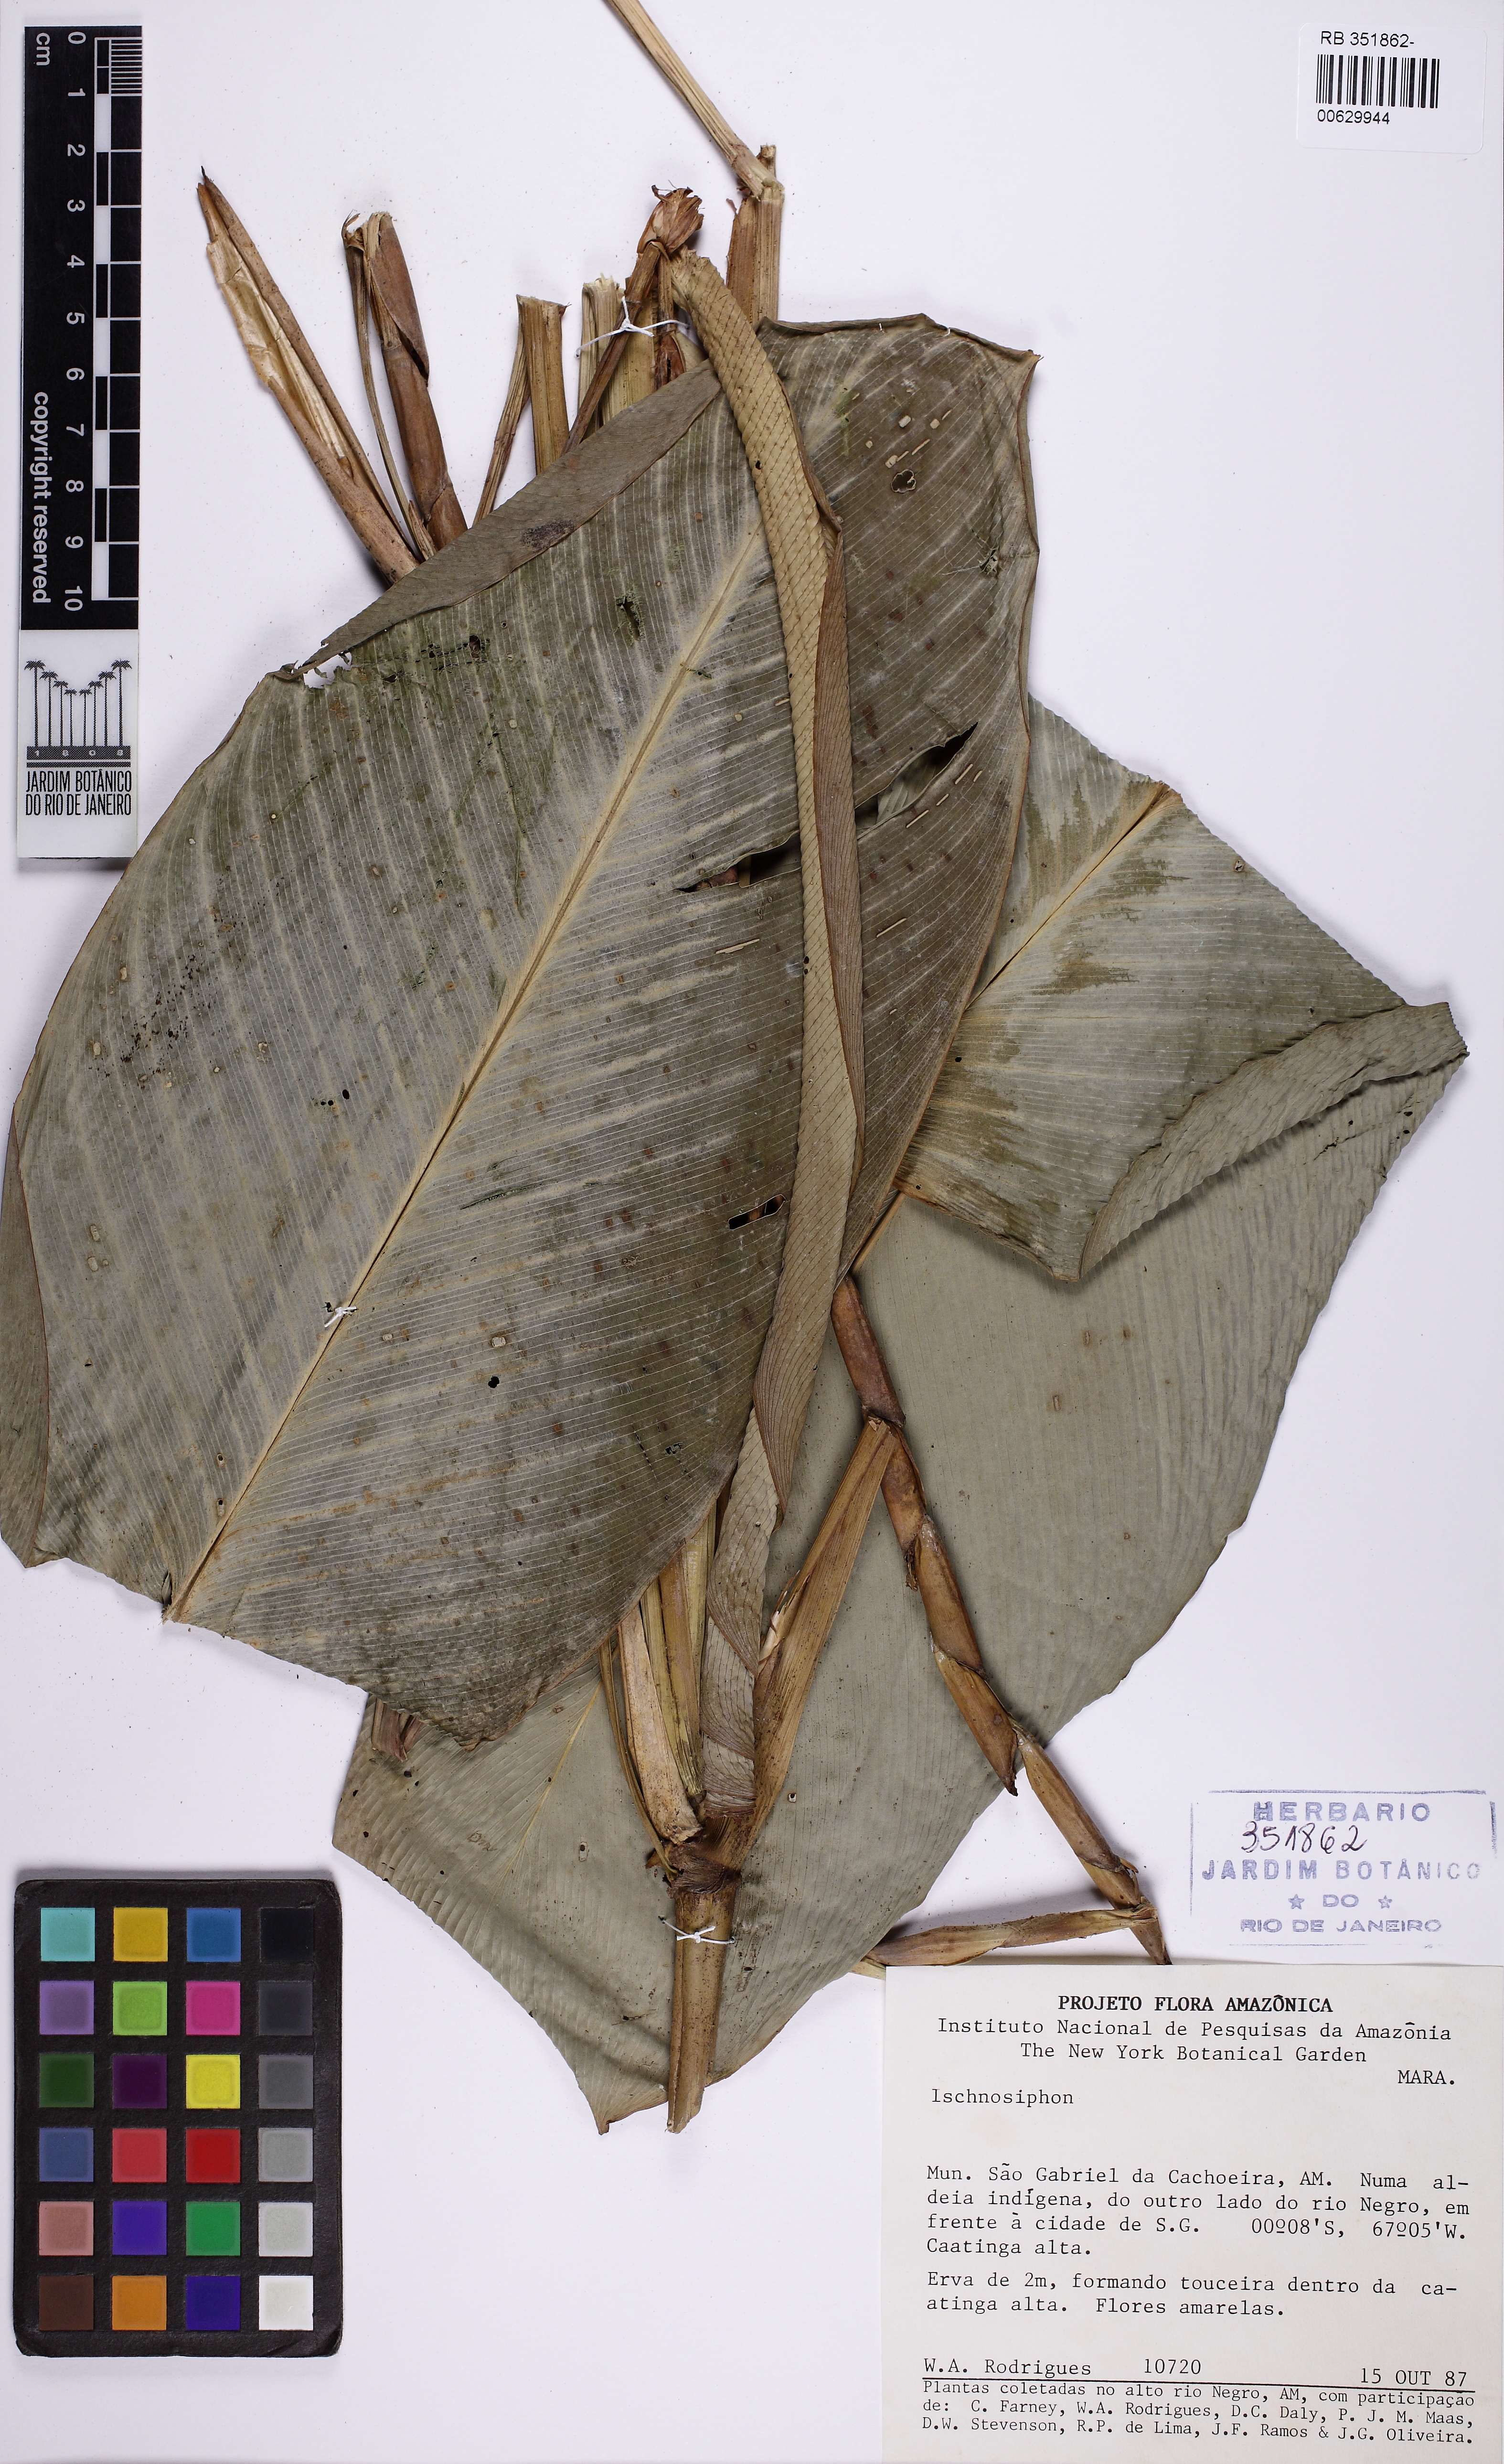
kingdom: Plantae
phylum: Tracheophyta
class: Liliopsida
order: Zingiberales
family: Marantaceae
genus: Ischnosiphon
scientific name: Ischnosiphon
